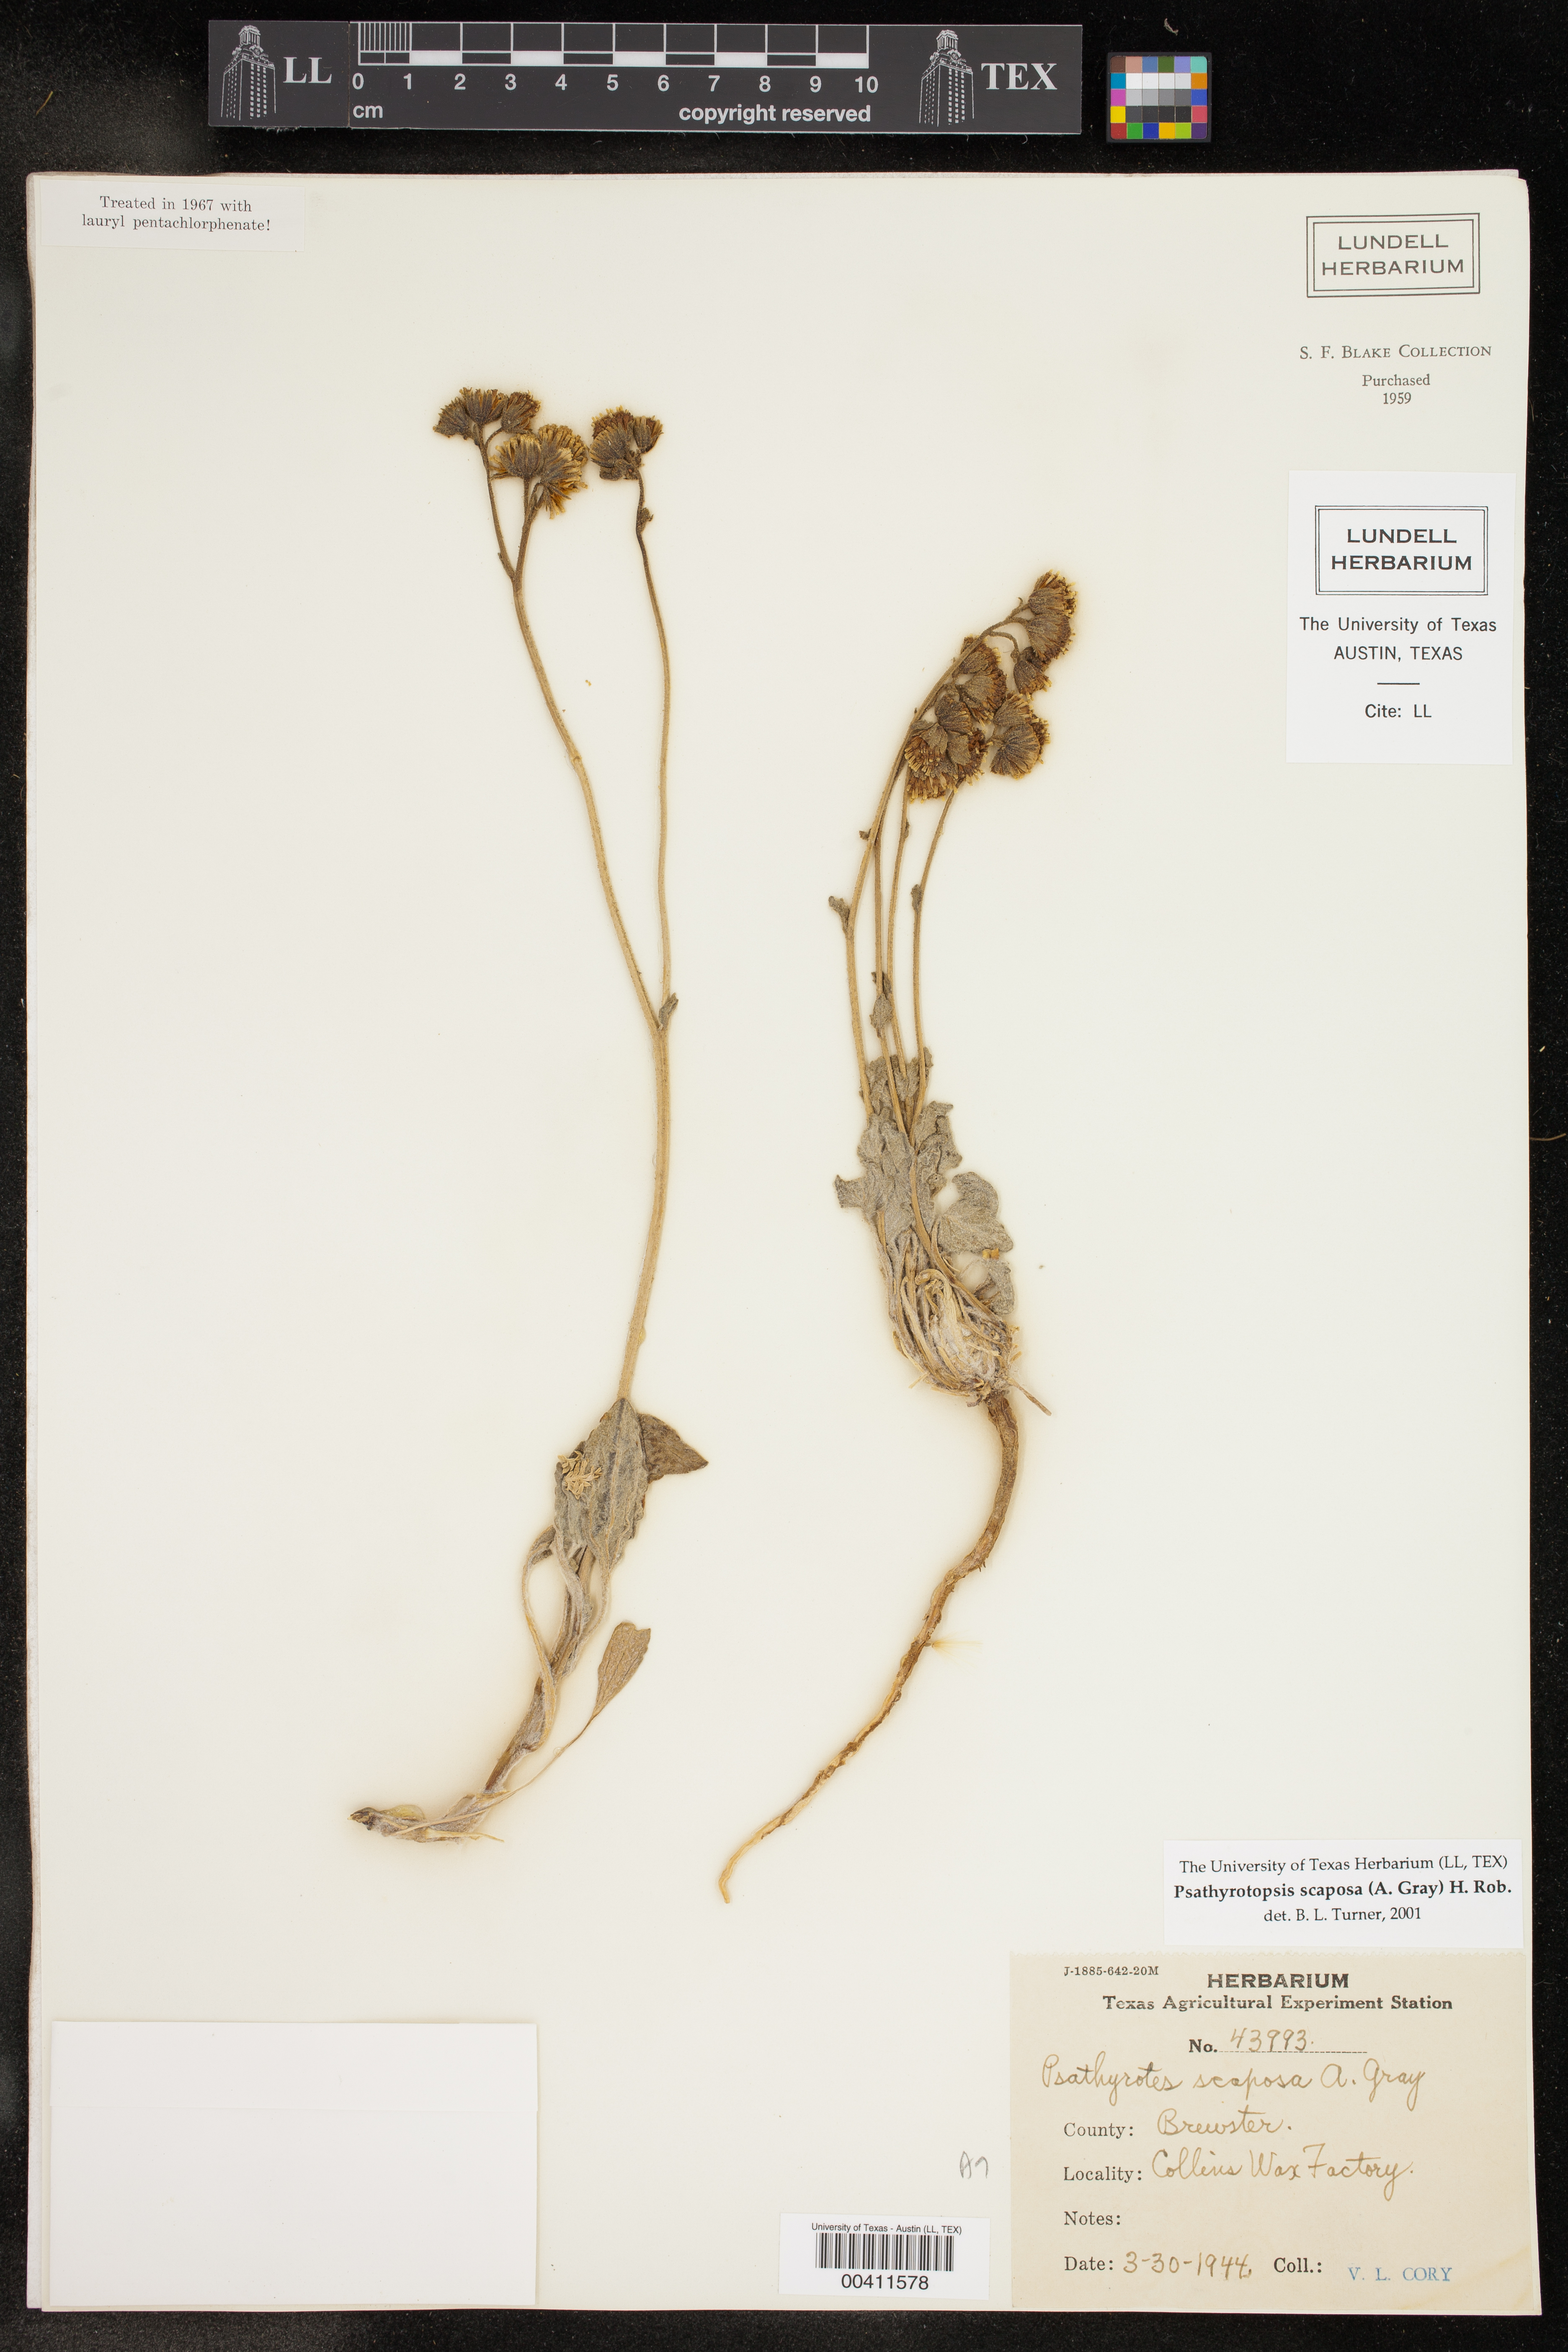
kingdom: Plantae
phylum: Tracheophyta
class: Magnoliopsida
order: Asterales
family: Asteraceae
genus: Psathyrotopsis
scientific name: Psathyrotopsis scaposa
